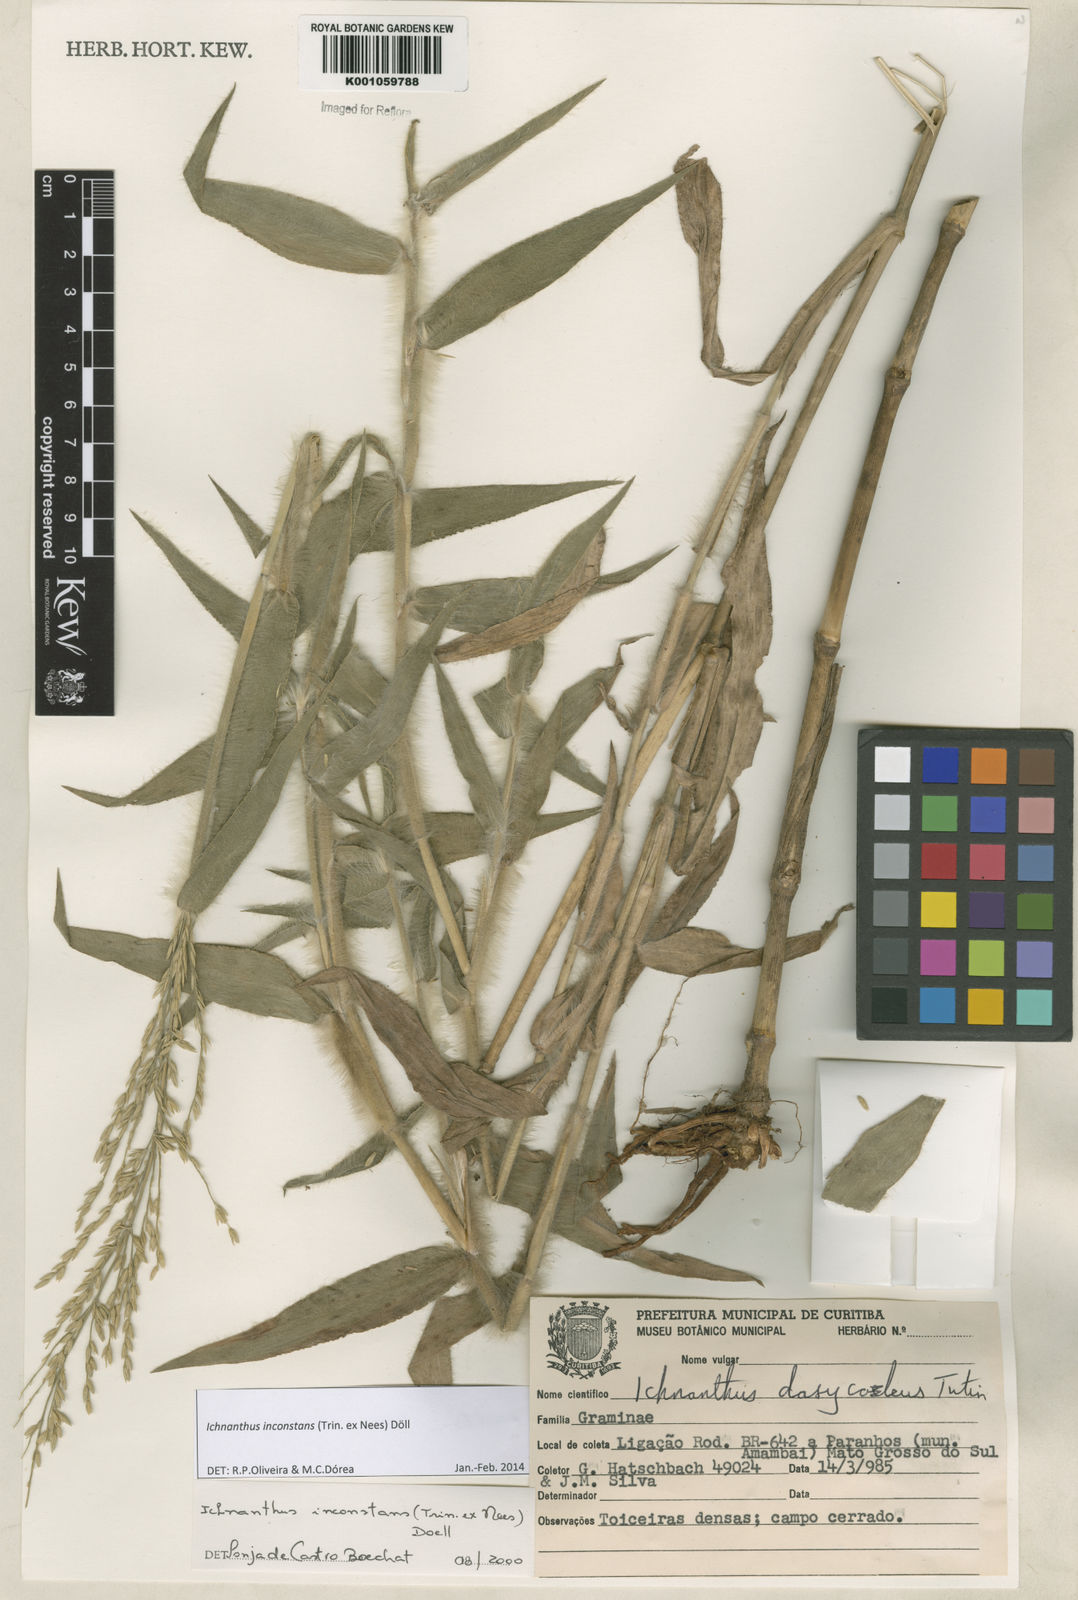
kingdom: Plantae
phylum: Tracheophyta
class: Liliopsida
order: Poales
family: Poaceae
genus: Ichnanthus
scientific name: Ichnanthus
